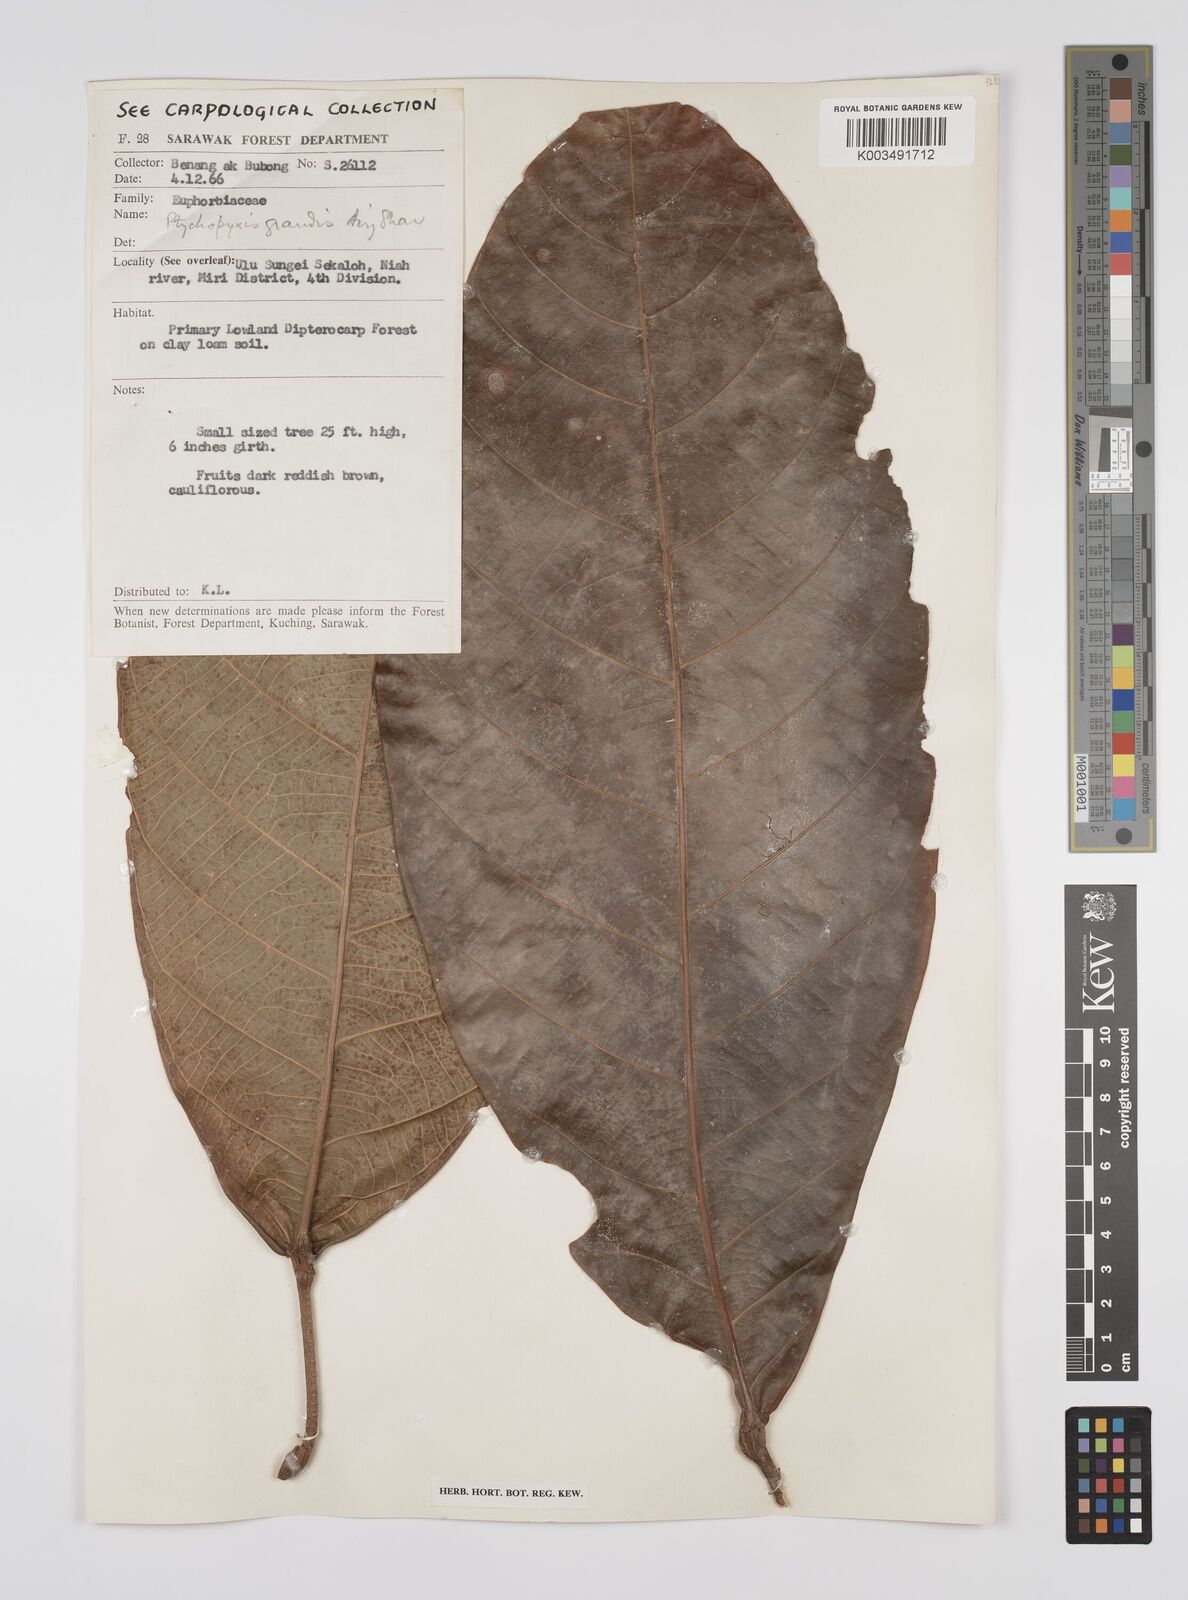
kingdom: Plantae
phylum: Tracheophyta
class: Magnoliopsida
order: Malpighiales
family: Euphorbiaceae
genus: Ptychopyxis
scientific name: Ptychopyxis grandis
